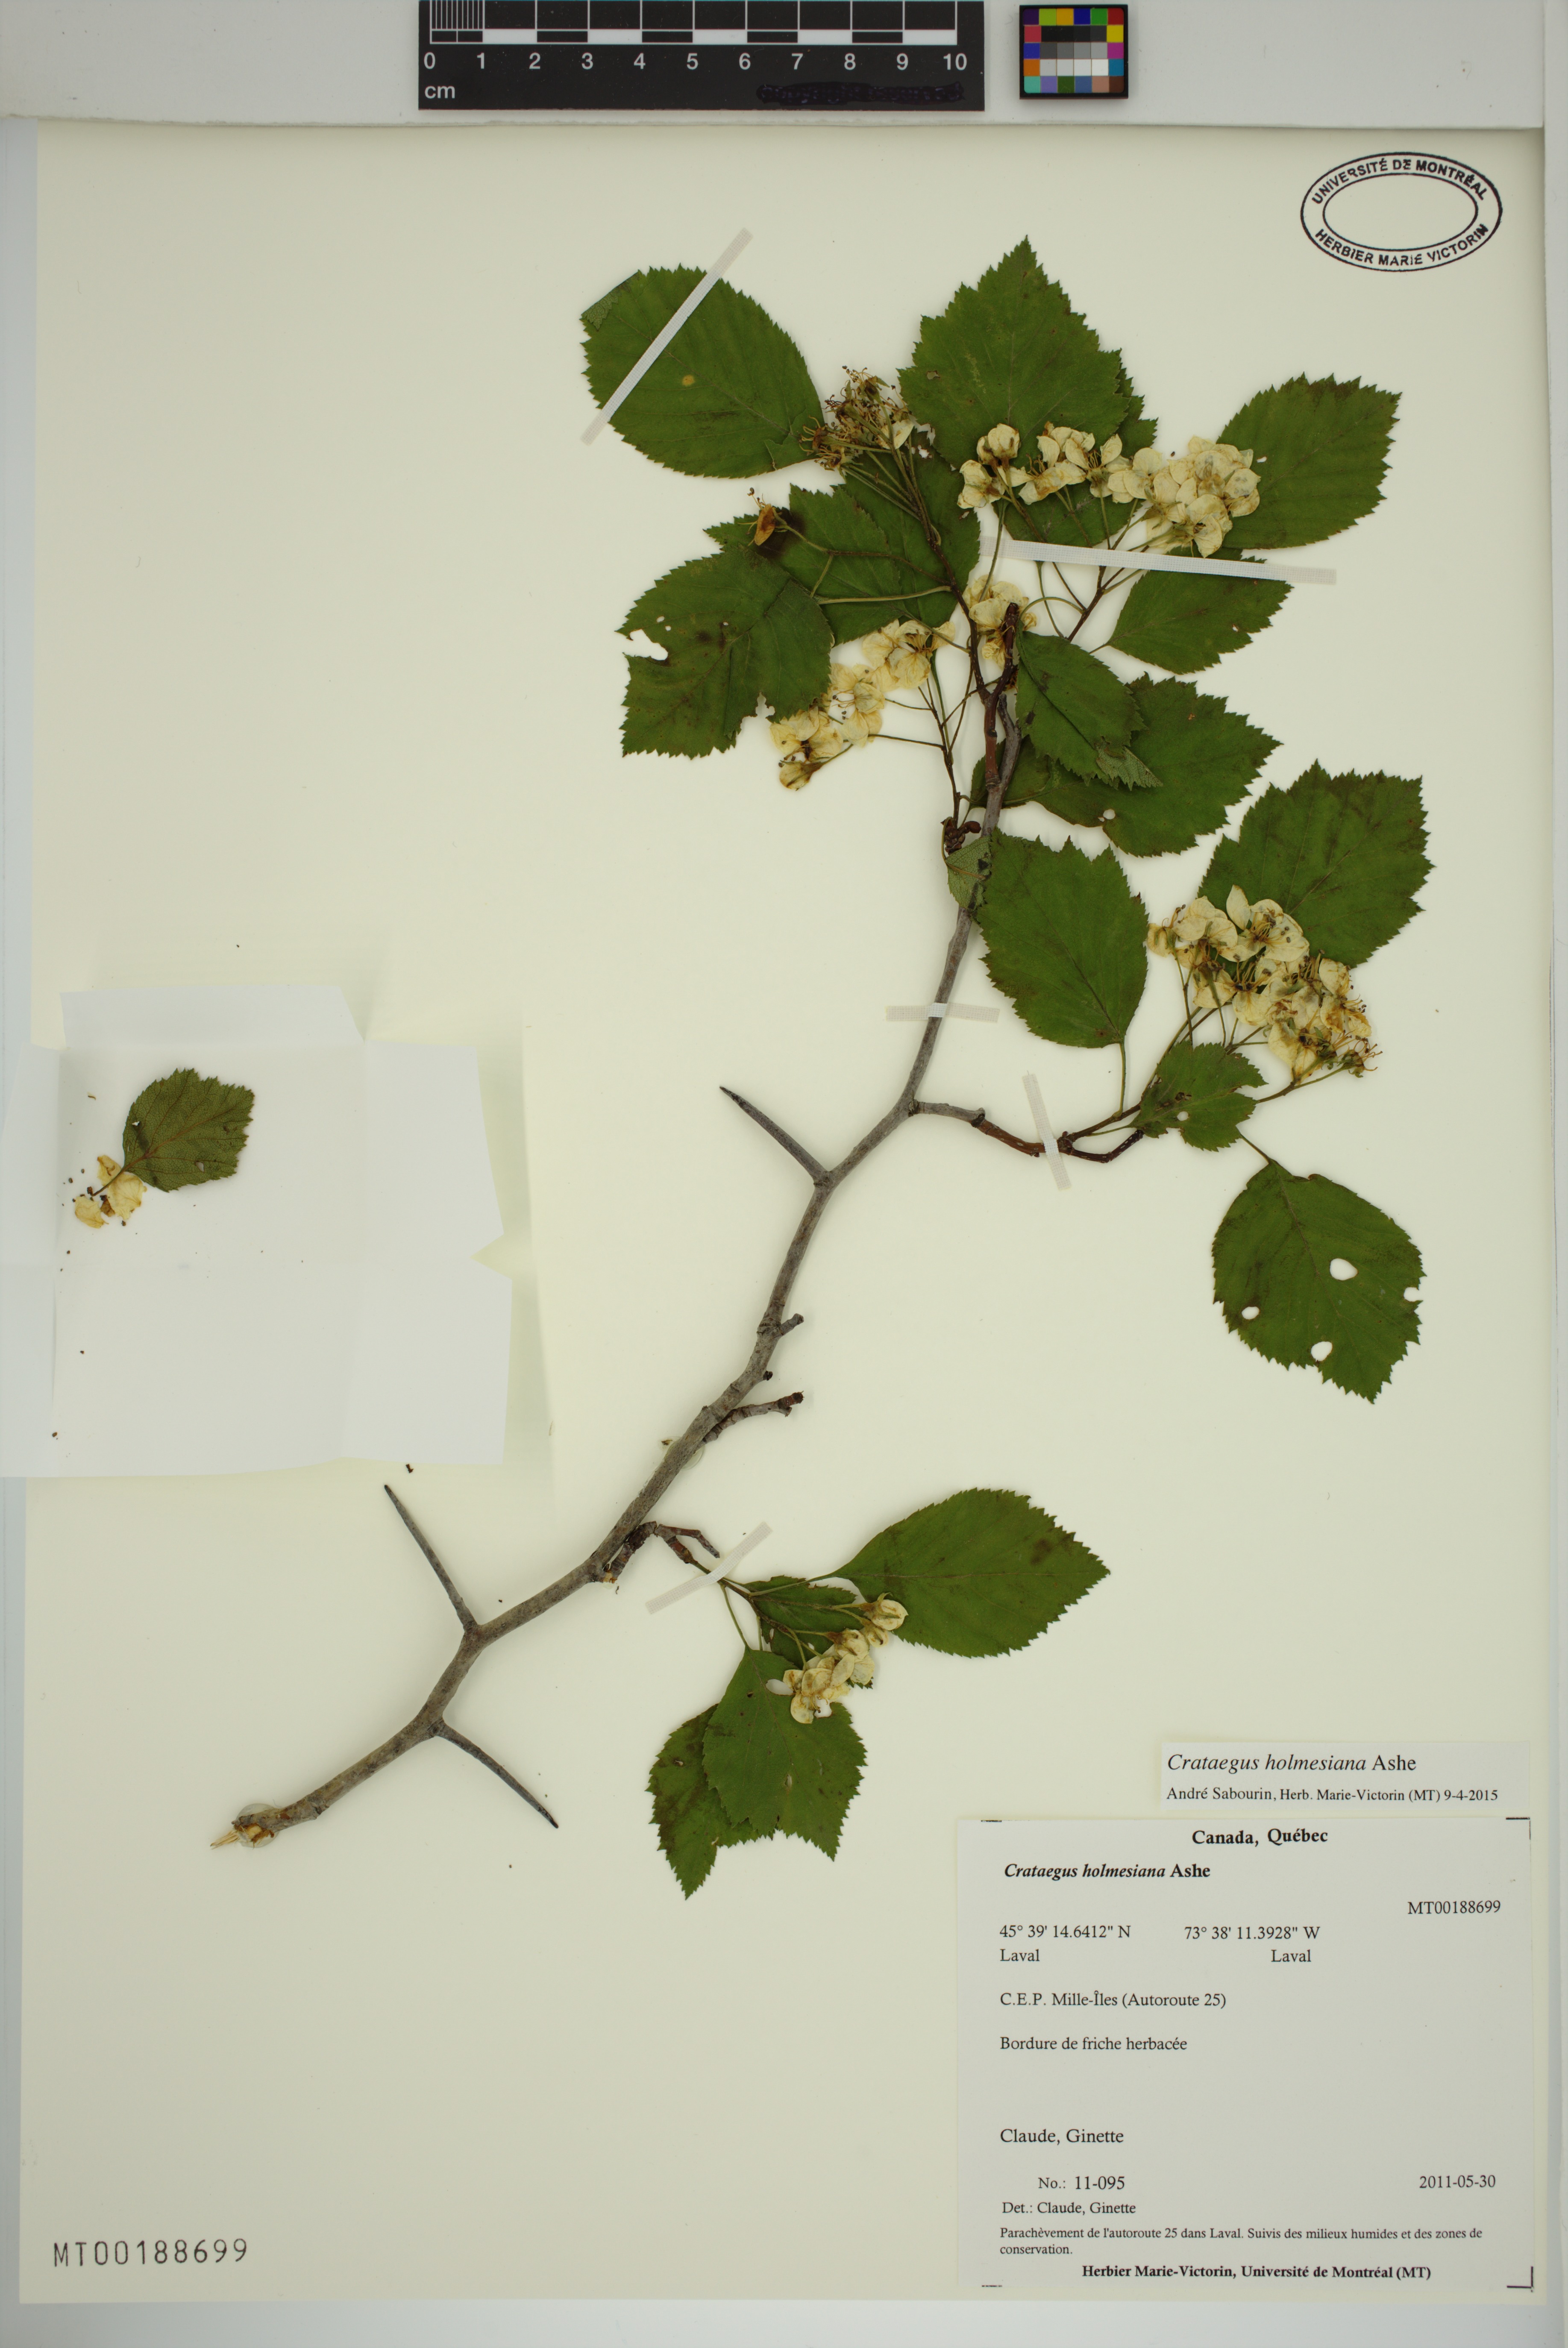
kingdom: Plantae
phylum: Tracheophyta
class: Magnoliopsida
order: Rosales
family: Rosaceae
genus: Crataegus
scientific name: Crataegus holmesiana
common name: Holmes' hawthorn
